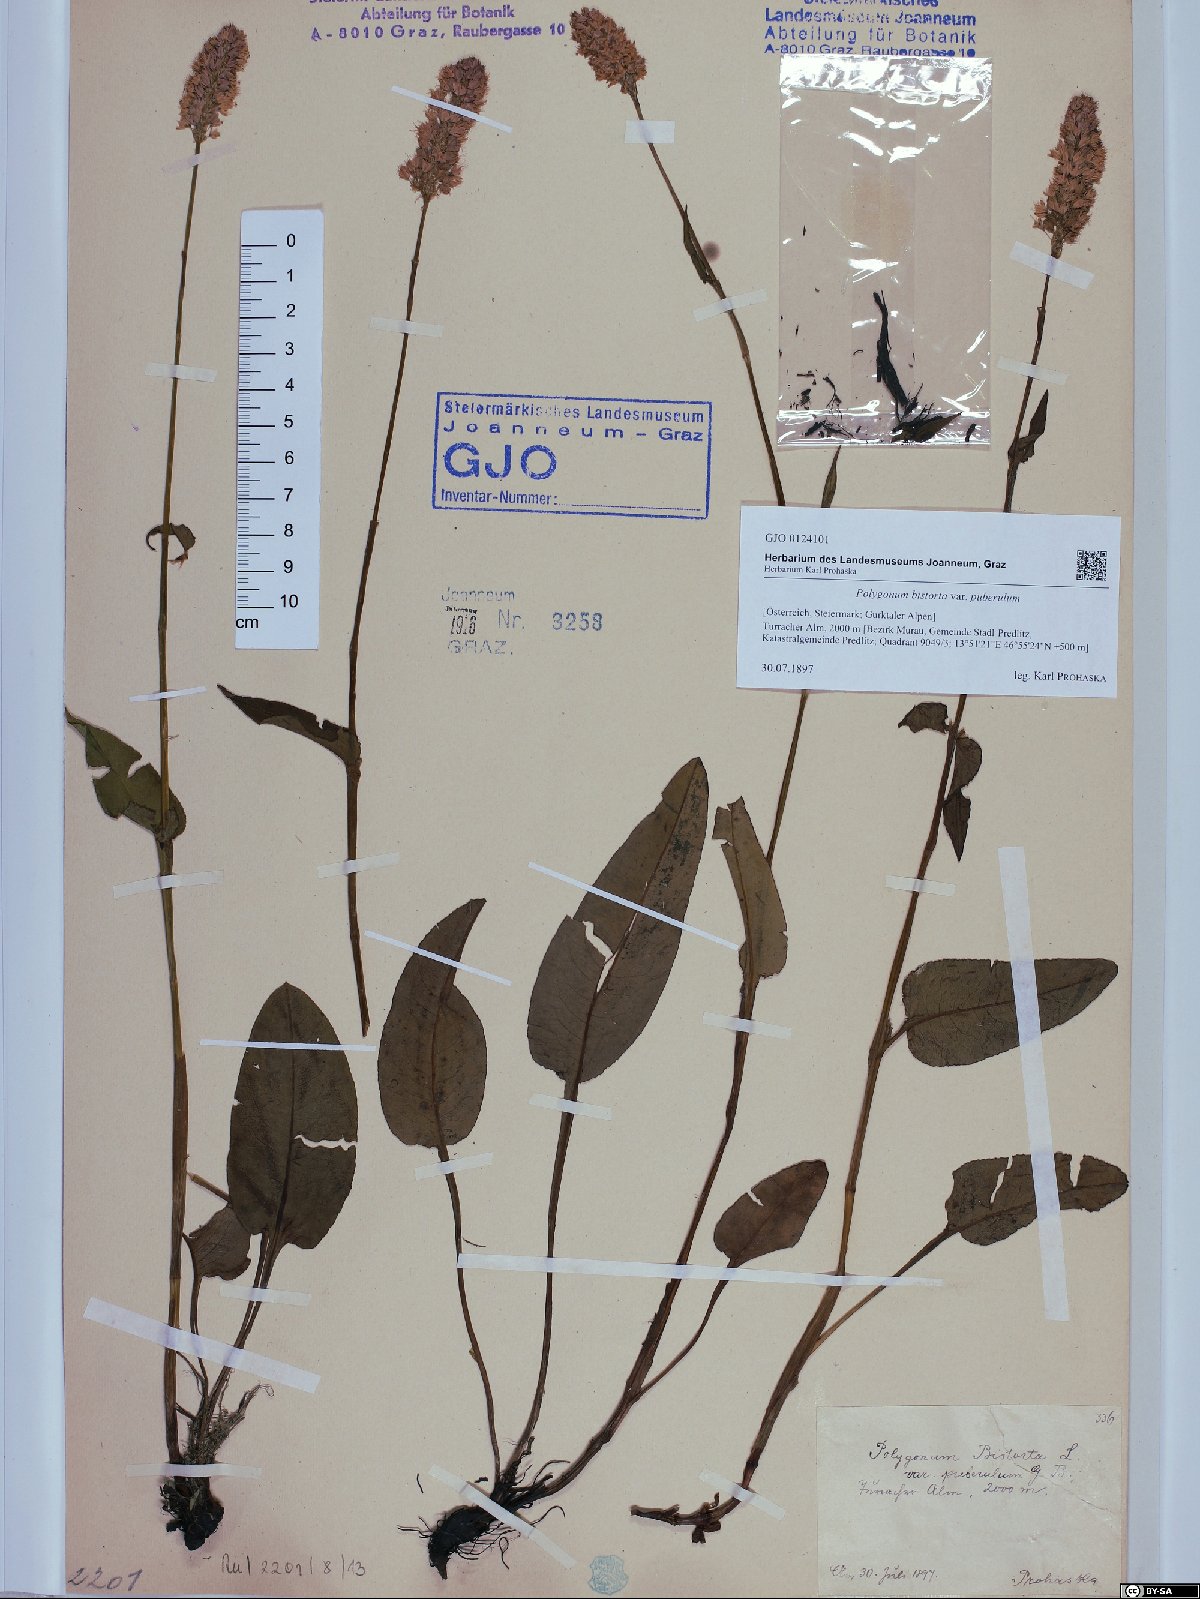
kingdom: Plantae
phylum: Tracheophyta
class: Magnoliopsida
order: Caryophyllales
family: Polygonaceae
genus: Polygonum
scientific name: Polygonum bistorta
